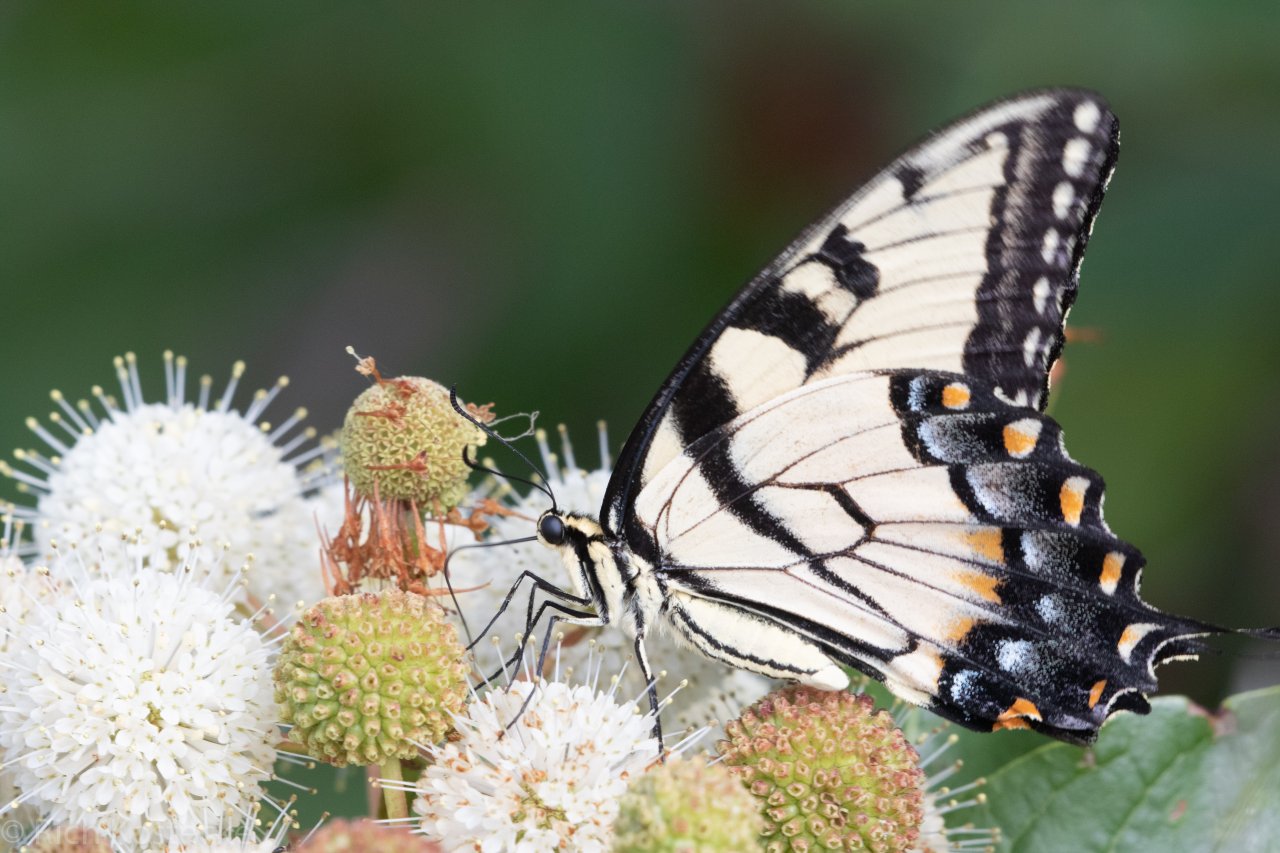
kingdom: Animalia
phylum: Arthropoda
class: Insecta
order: Lepidoptera
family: Papilionidae
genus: Pterourus
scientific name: Pterourus glaucus
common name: Eastern Tiger Swallowtail
